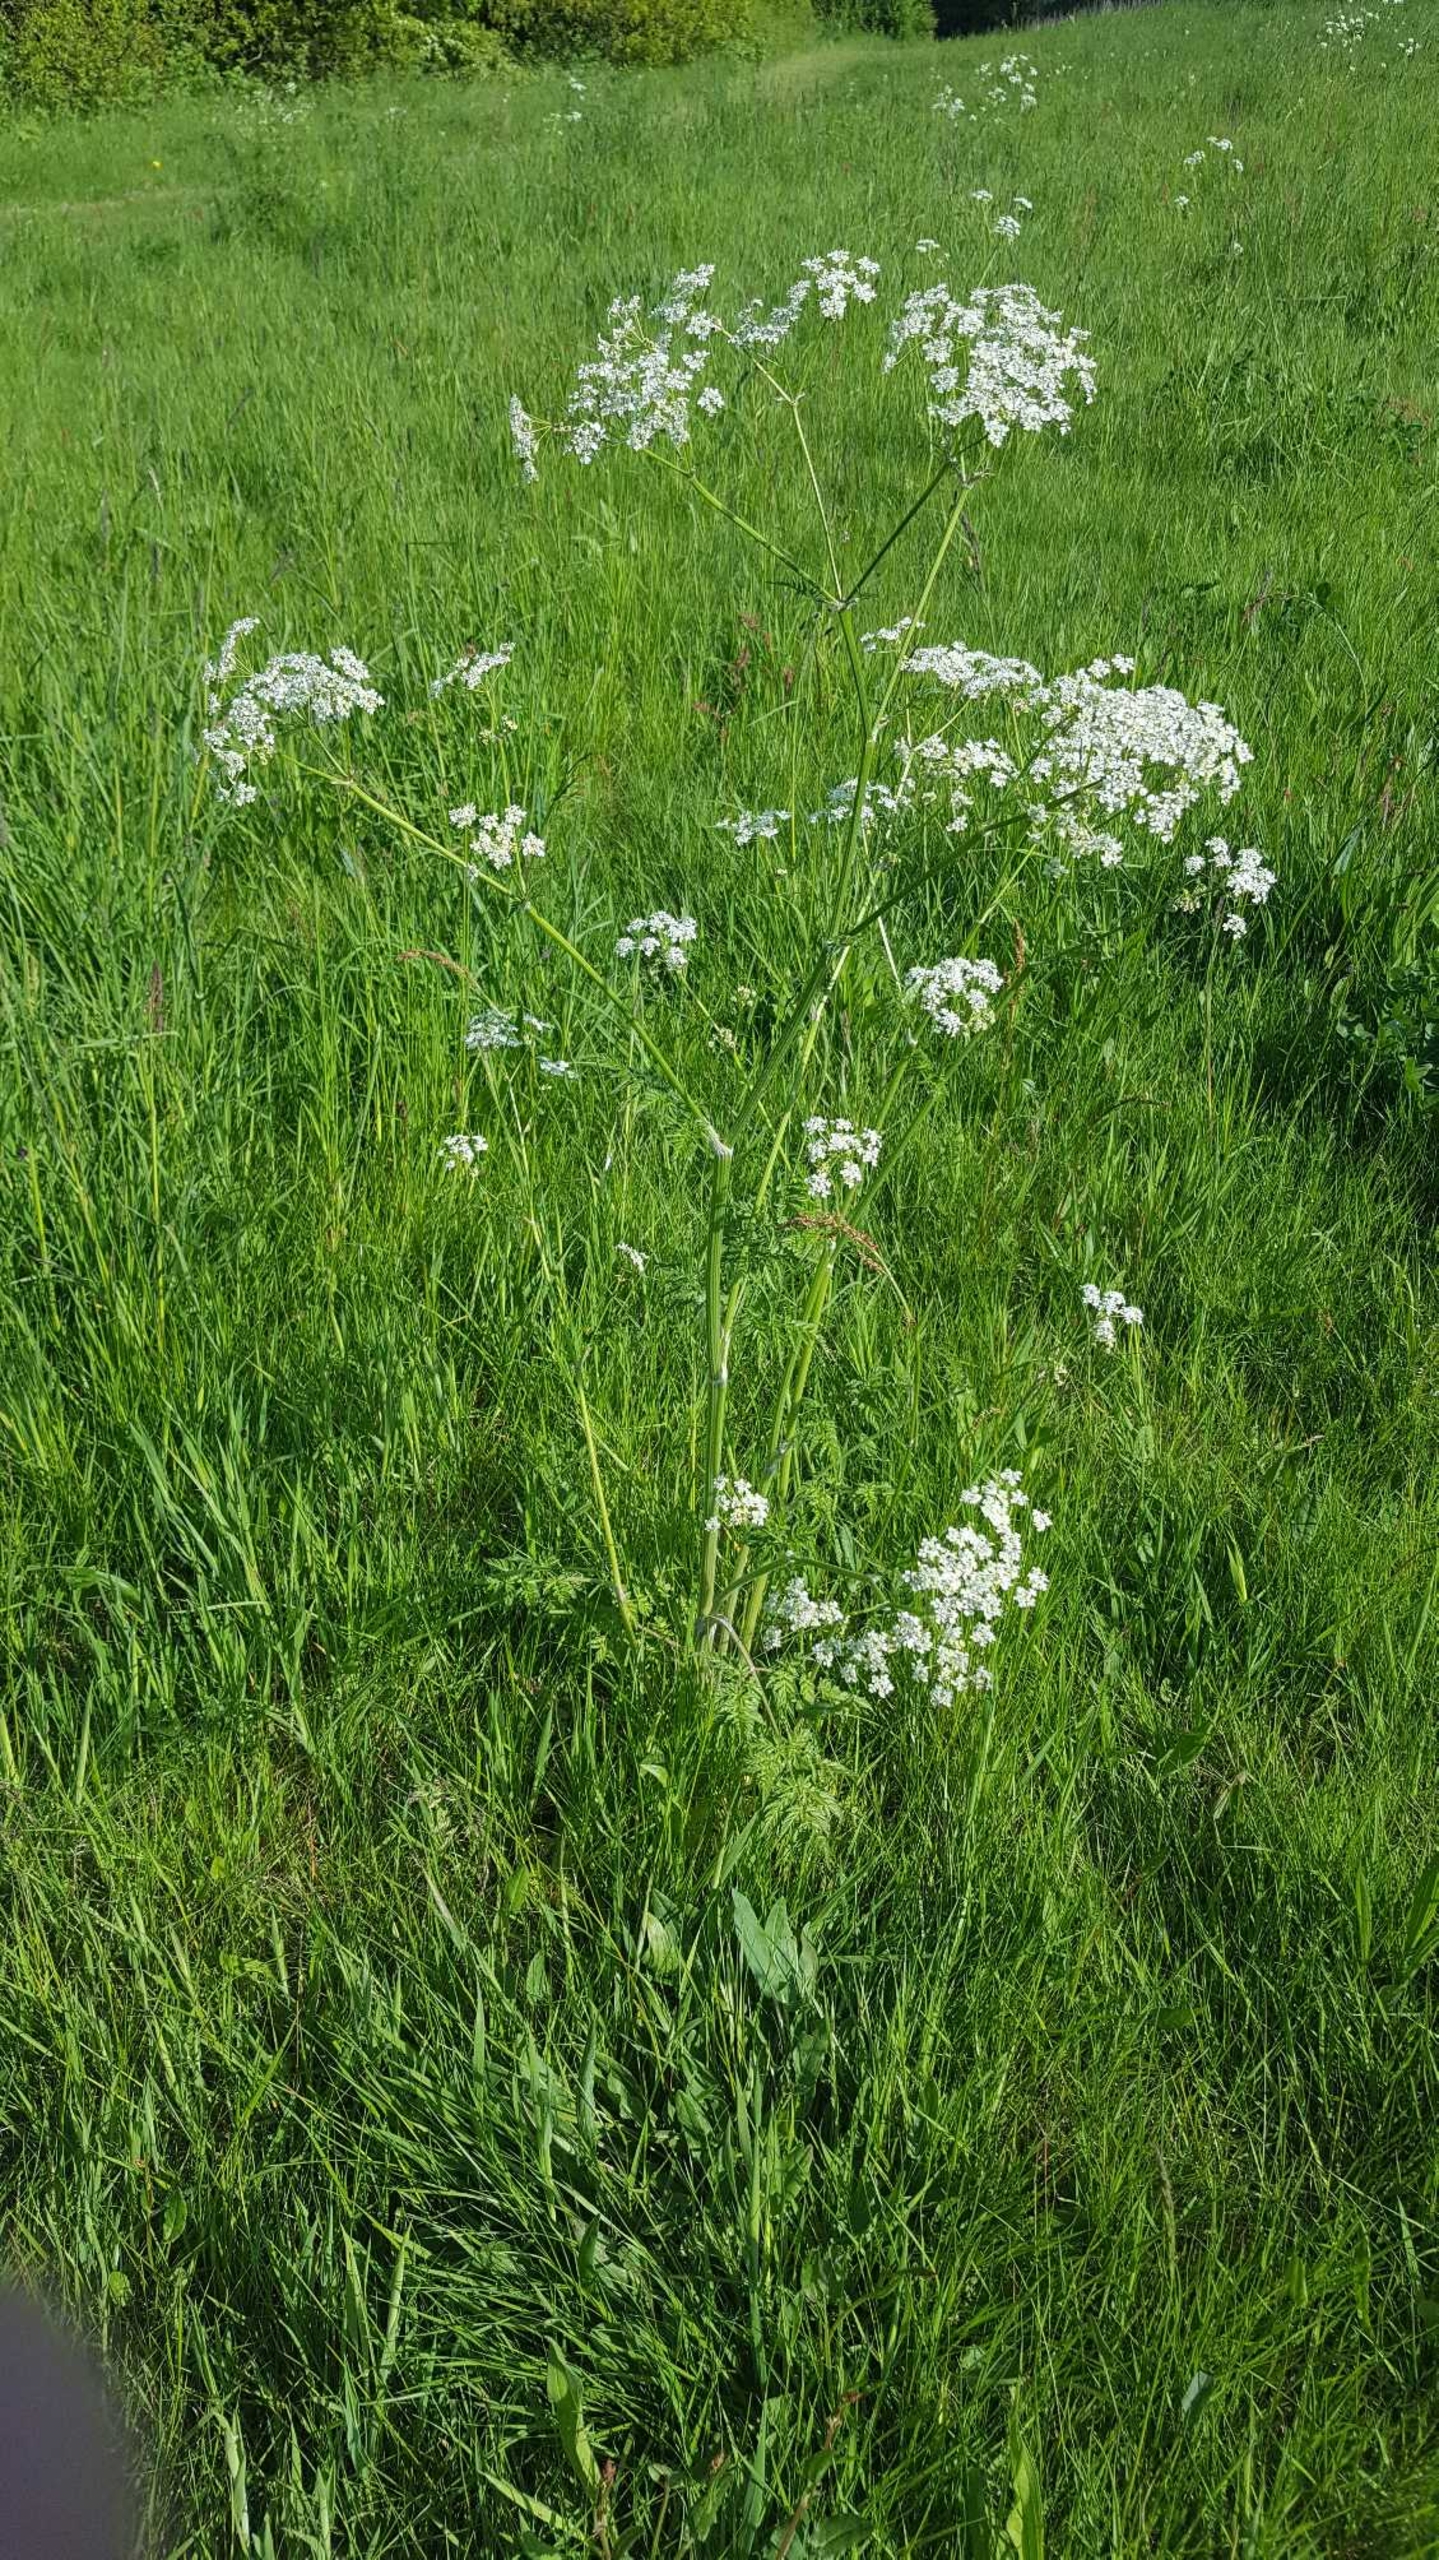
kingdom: Plantae
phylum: Tracheophyta
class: Magnoliopsida
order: Apiales
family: Apiaceae
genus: Anthriscus
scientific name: Anthriscus sylvestris
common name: Vild kørvel
